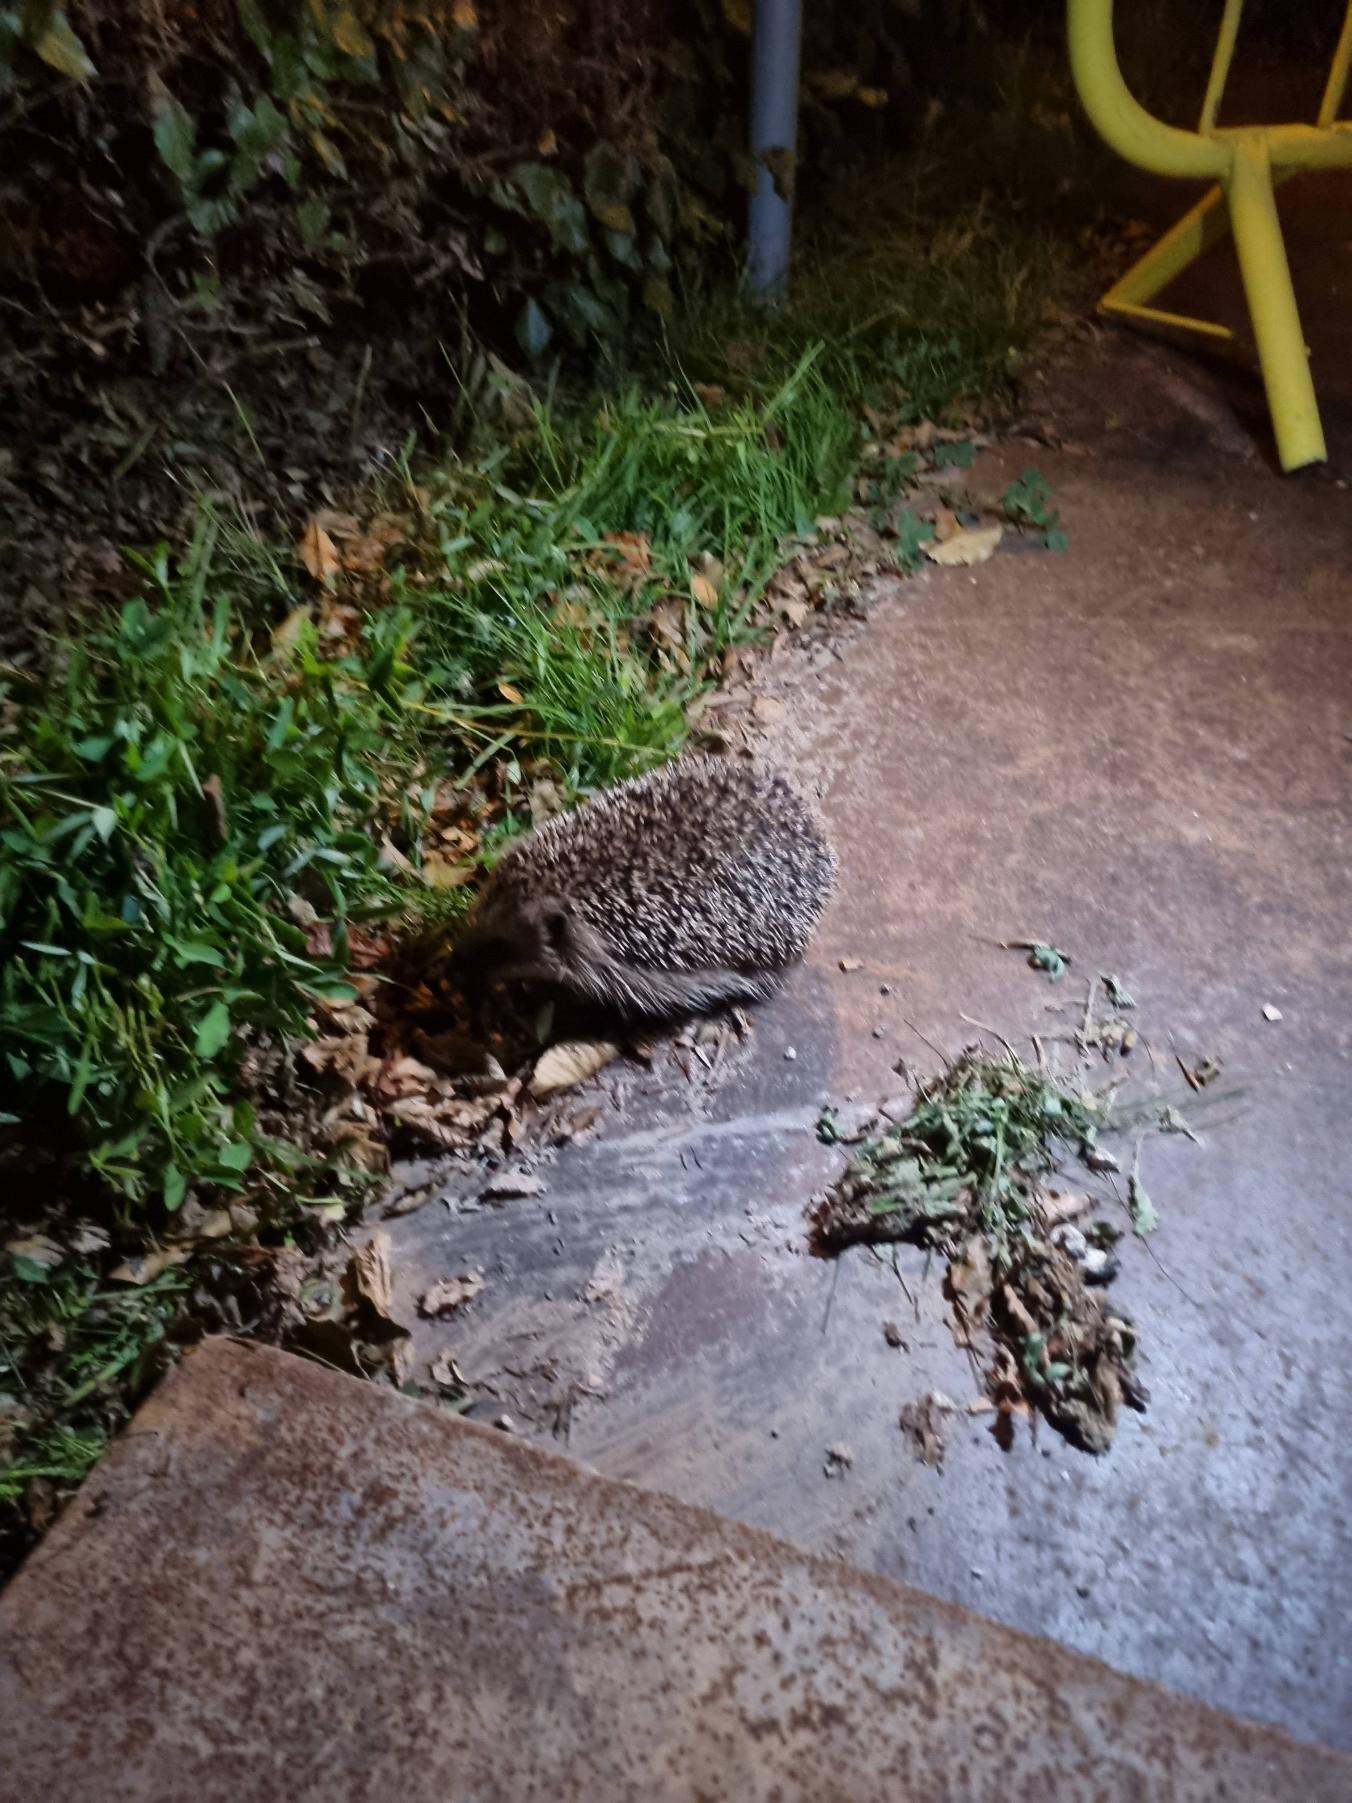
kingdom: Animalia
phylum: Chordata
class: Mammalia
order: Erinaceomorpha
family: Erinaceidae
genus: Erinaceus
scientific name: Erinaceus europaeus
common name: Pindsvin
